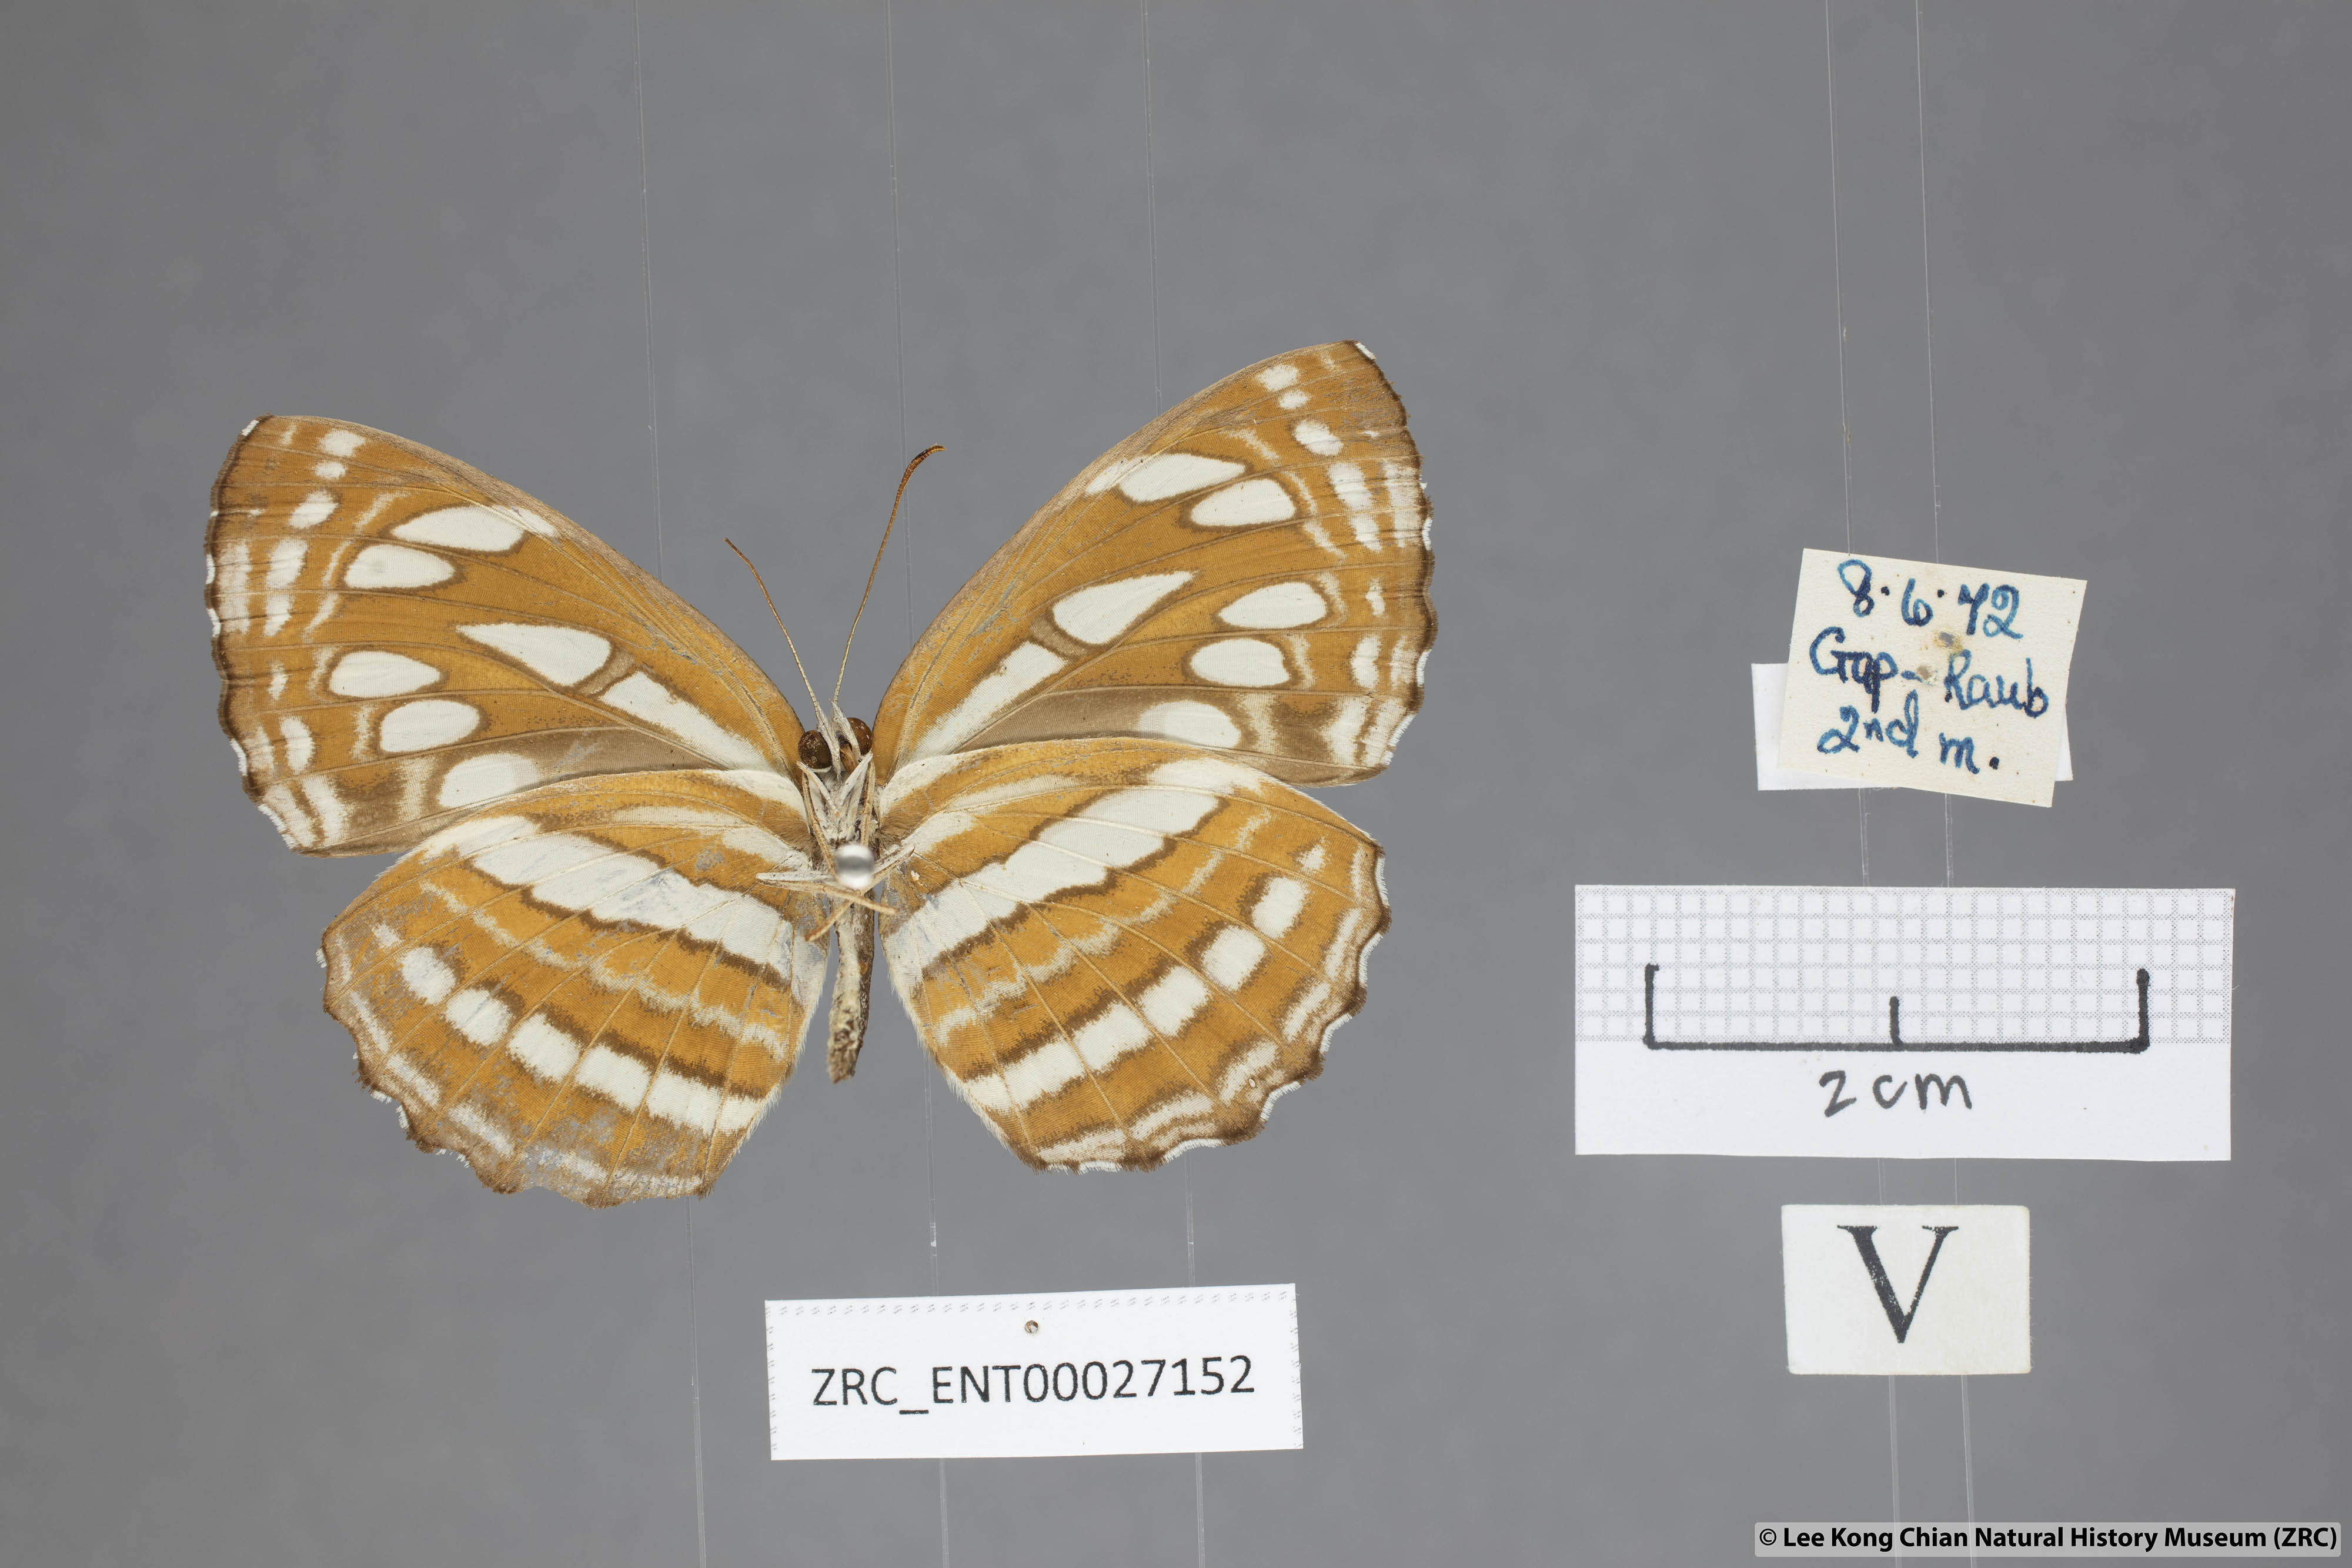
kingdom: Animalia
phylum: Arthropoda
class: Insecta
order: Lepidoptera
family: Nymphalidae
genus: Neptis
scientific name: Neptis hylas
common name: Common sailer
